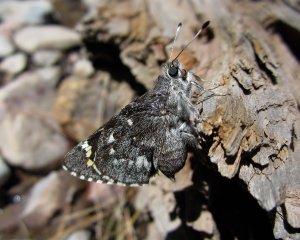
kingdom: Animalia
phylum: Arthropoda
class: Insecta
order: Lepidoptera
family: Hesperiidae
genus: Agathymus
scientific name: Agathymus evansi
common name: Huachuca Giant-Skipper
